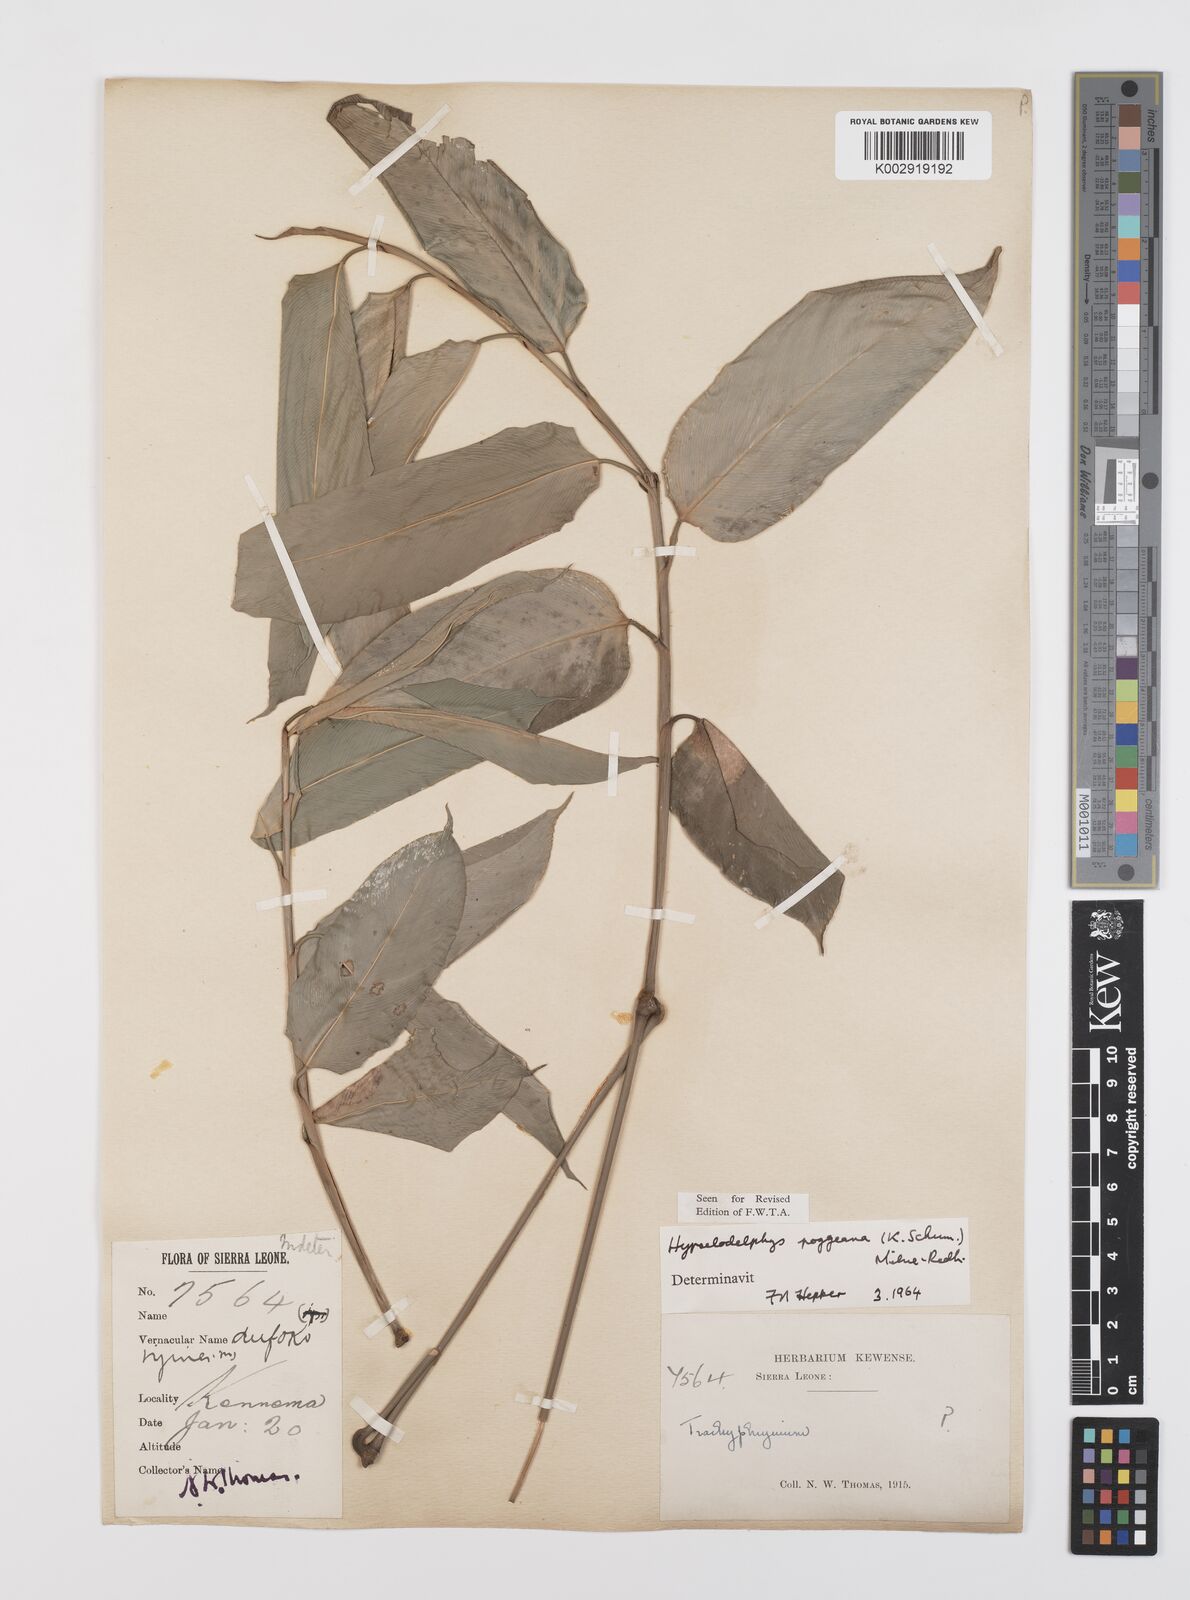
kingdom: Plantae
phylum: Tracheophyta
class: Liliopsida
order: Zingiberales
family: Marantaceae
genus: Hypselodelphys
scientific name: Hypselodelphys poggeana
